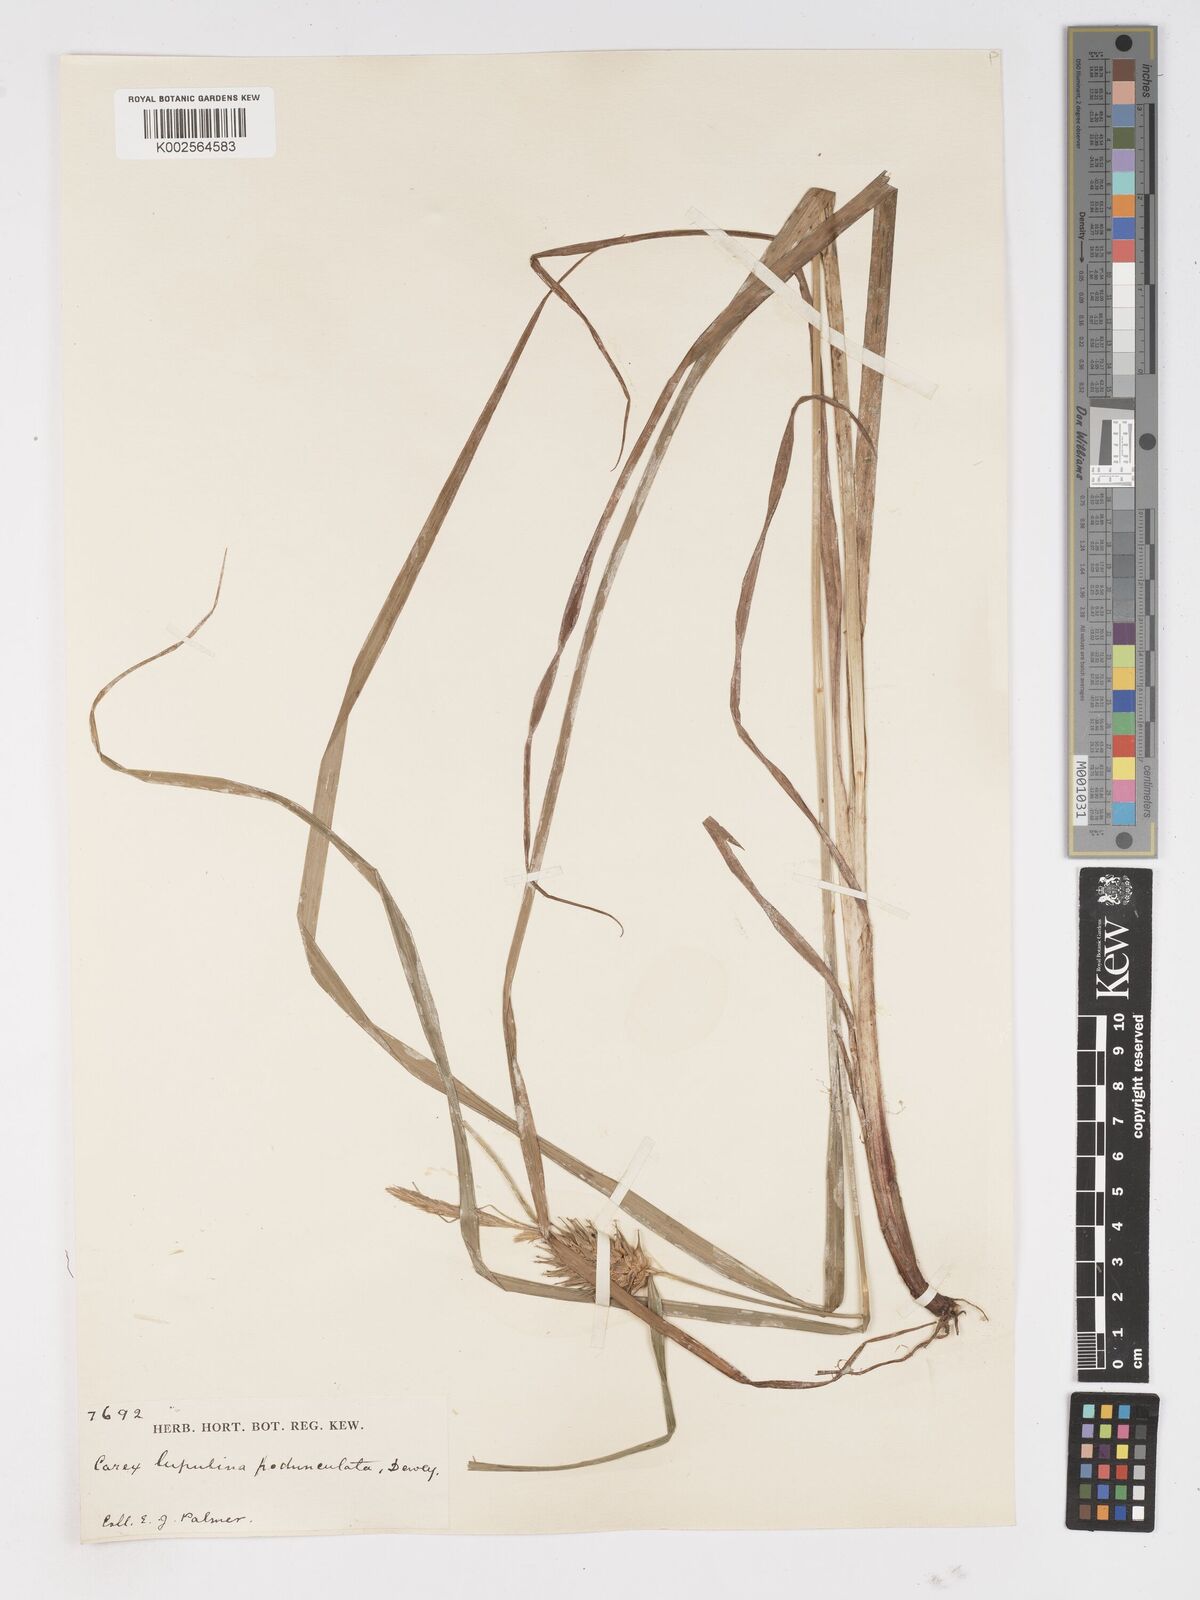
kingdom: Plantae
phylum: Tracheophyta
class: Liliopsida
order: Poales
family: Cyperaceae
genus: Carex
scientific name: Carex lupulina
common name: Hop sedge
